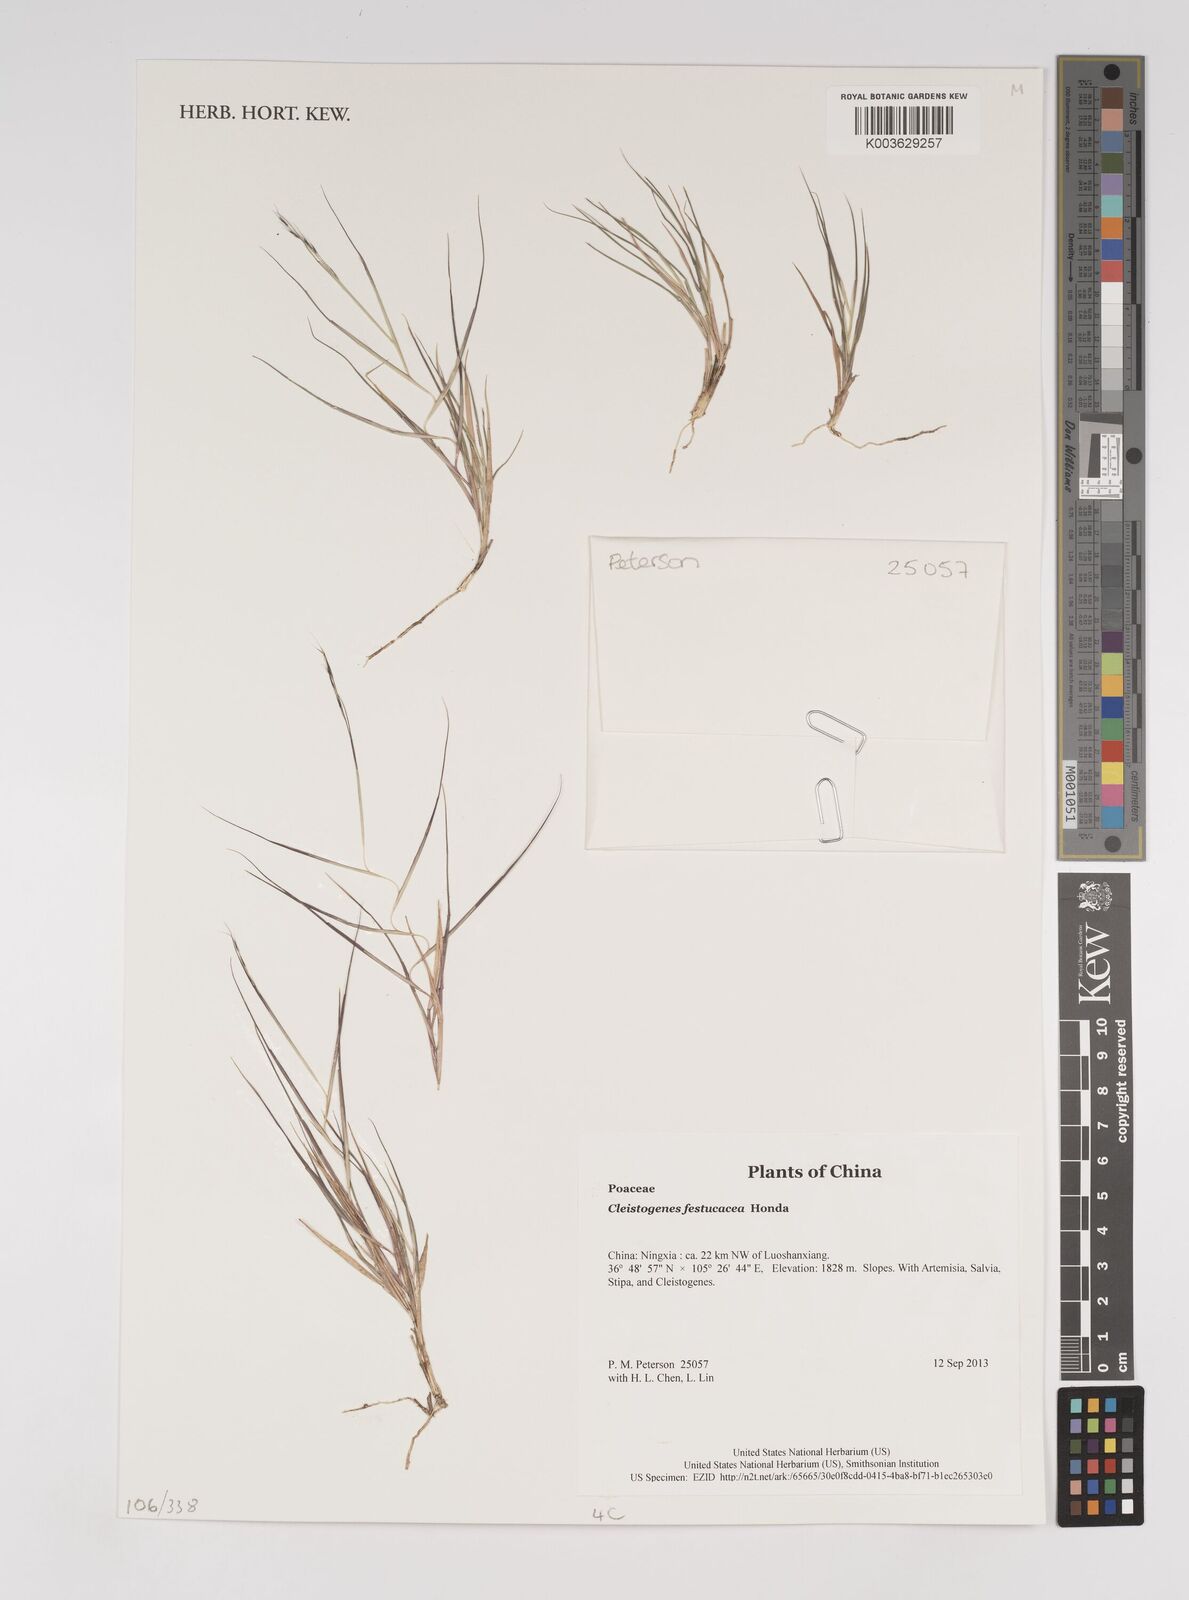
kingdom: Plantae
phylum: Tracheophyta
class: Liliopsida
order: Poales
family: Poaceae
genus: Cleistogenes
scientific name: Cleistogenes festucacea
